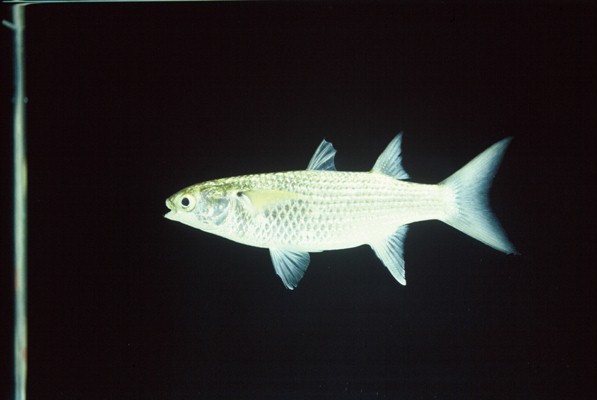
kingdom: Animalia
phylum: Chordata
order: Mugiliformes
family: Mugilidae
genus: Crenimugil
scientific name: Crenimugil buchanani
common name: Bluetail mullet
